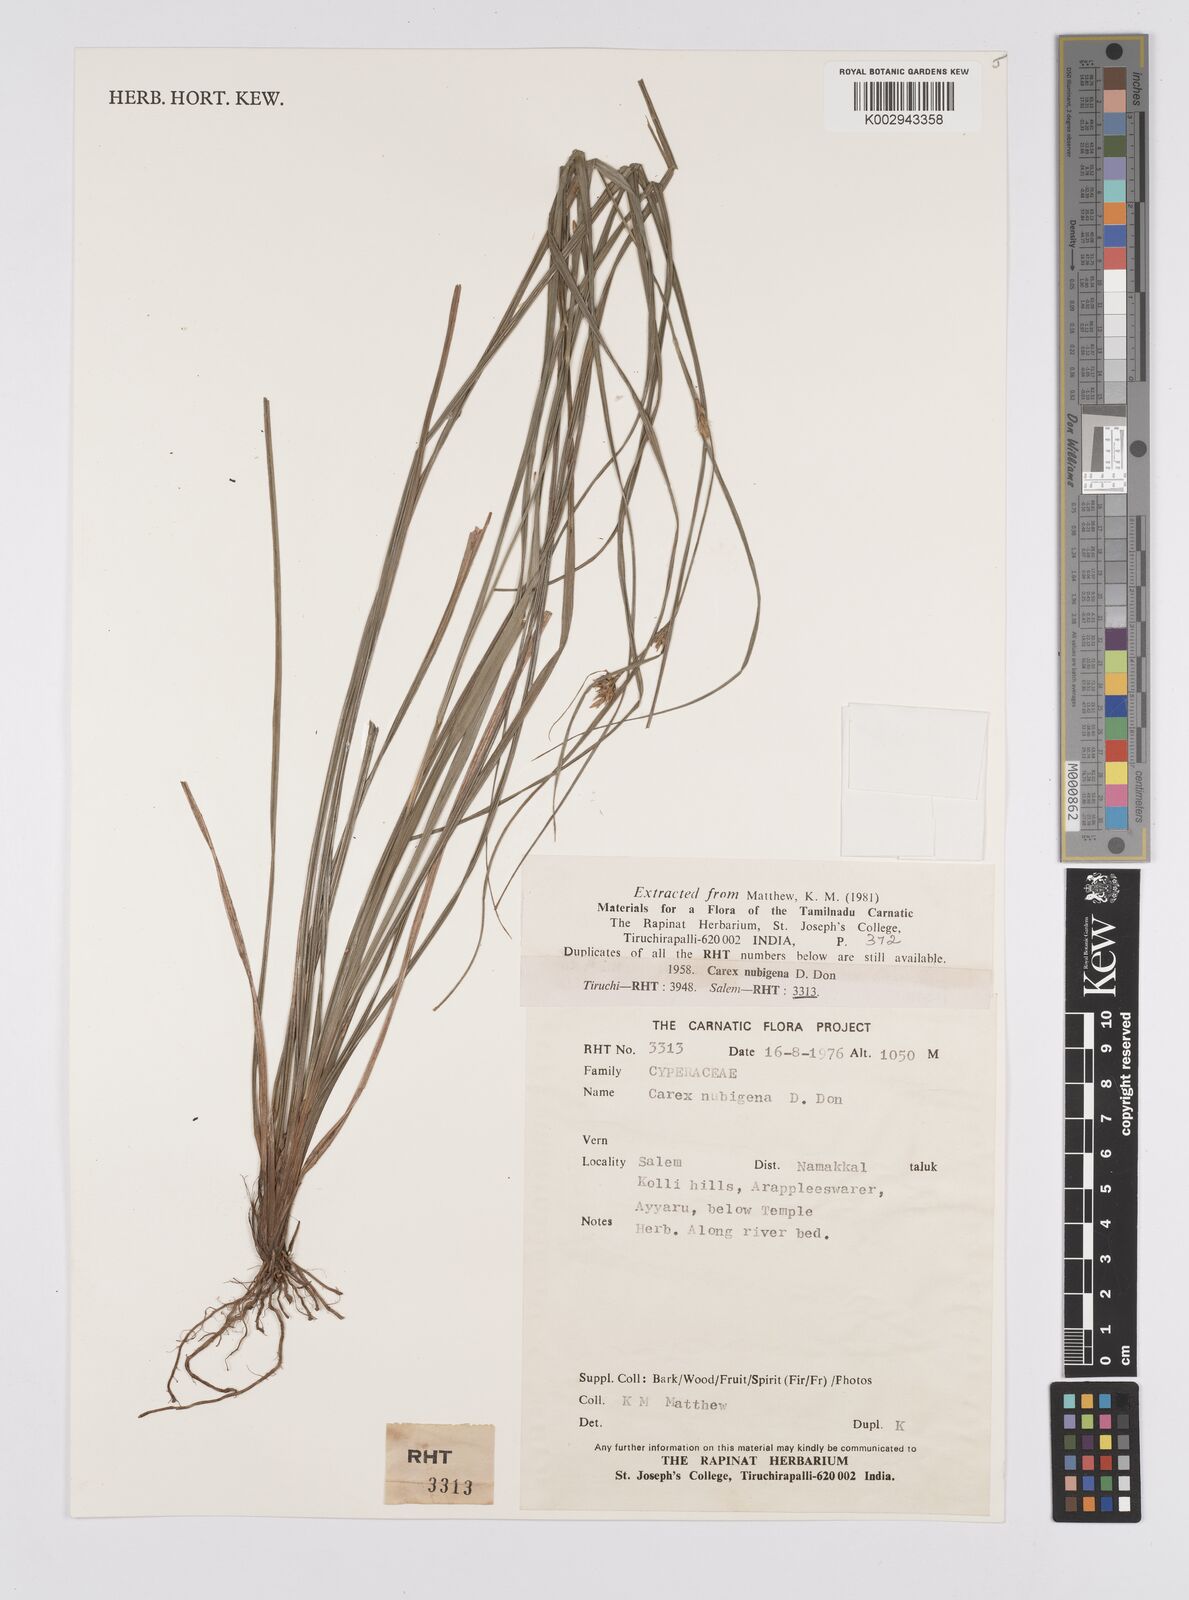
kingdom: Plantae
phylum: Tracheophyta
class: Liliopsida
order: Poales
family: Cyperaceae
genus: Carex
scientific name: Carex nubigena
